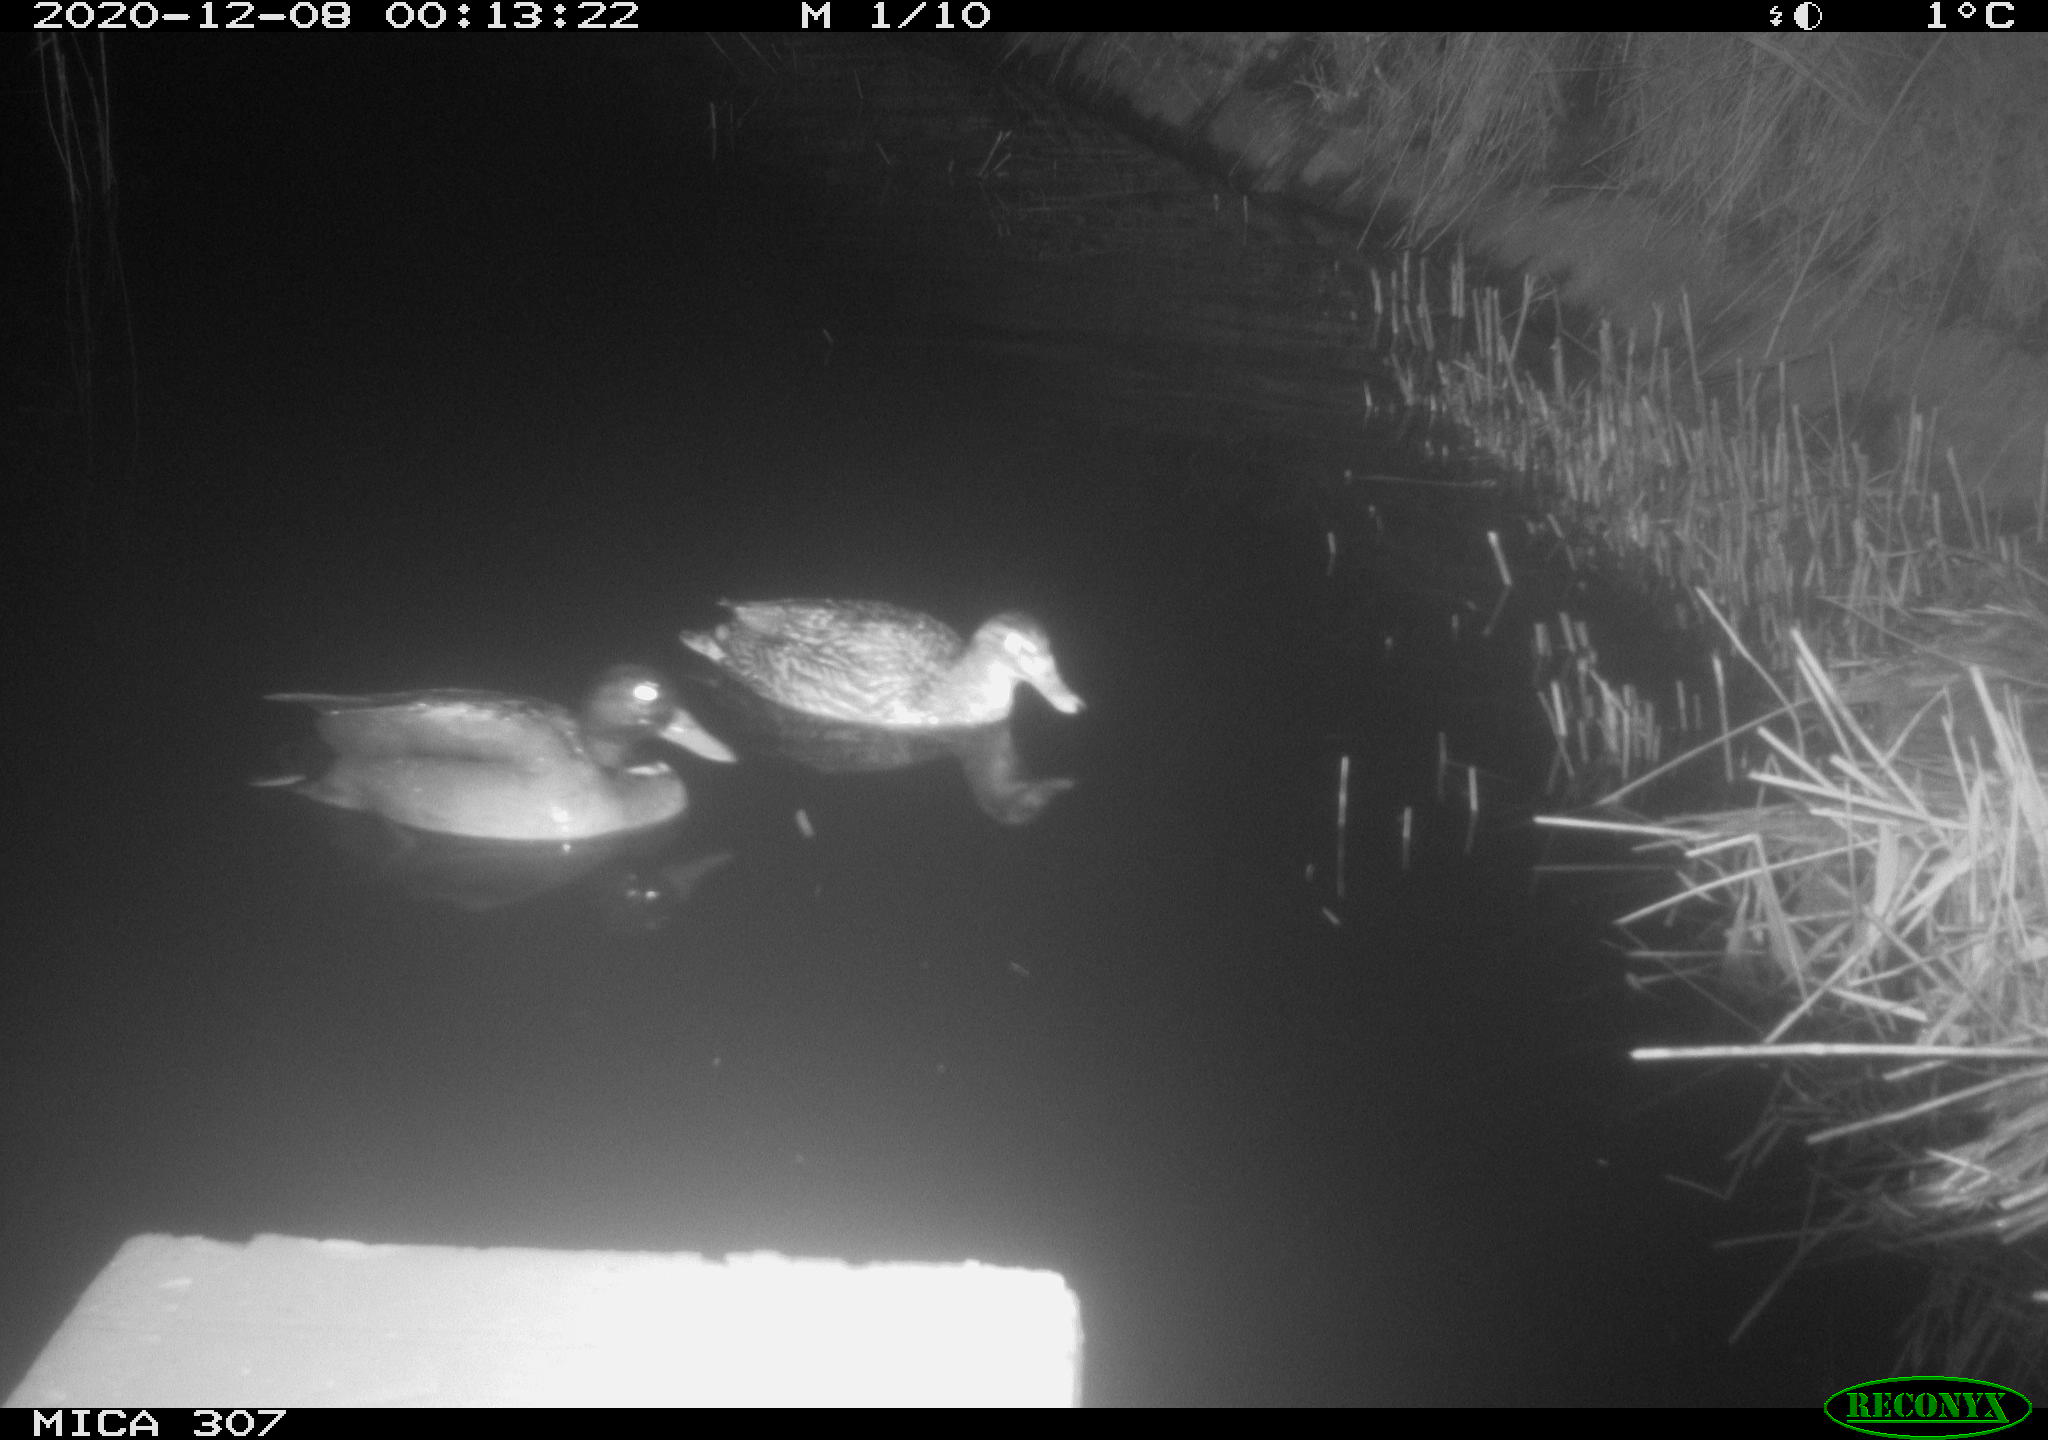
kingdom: Animalia
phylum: Chordata
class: Aves
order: Anseriformes
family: Anatidae
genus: Anas
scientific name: Anas platyrhynchos
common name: Mallard
